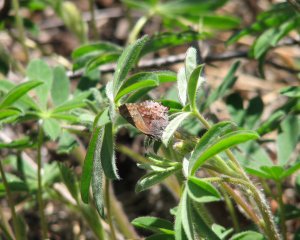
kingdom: Animalia
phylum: Arthropoda
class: Insecta
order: Lepidoptera
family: Lycaenidae
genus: Thecla
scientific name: Thecla irus
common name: Frosted Elfin
